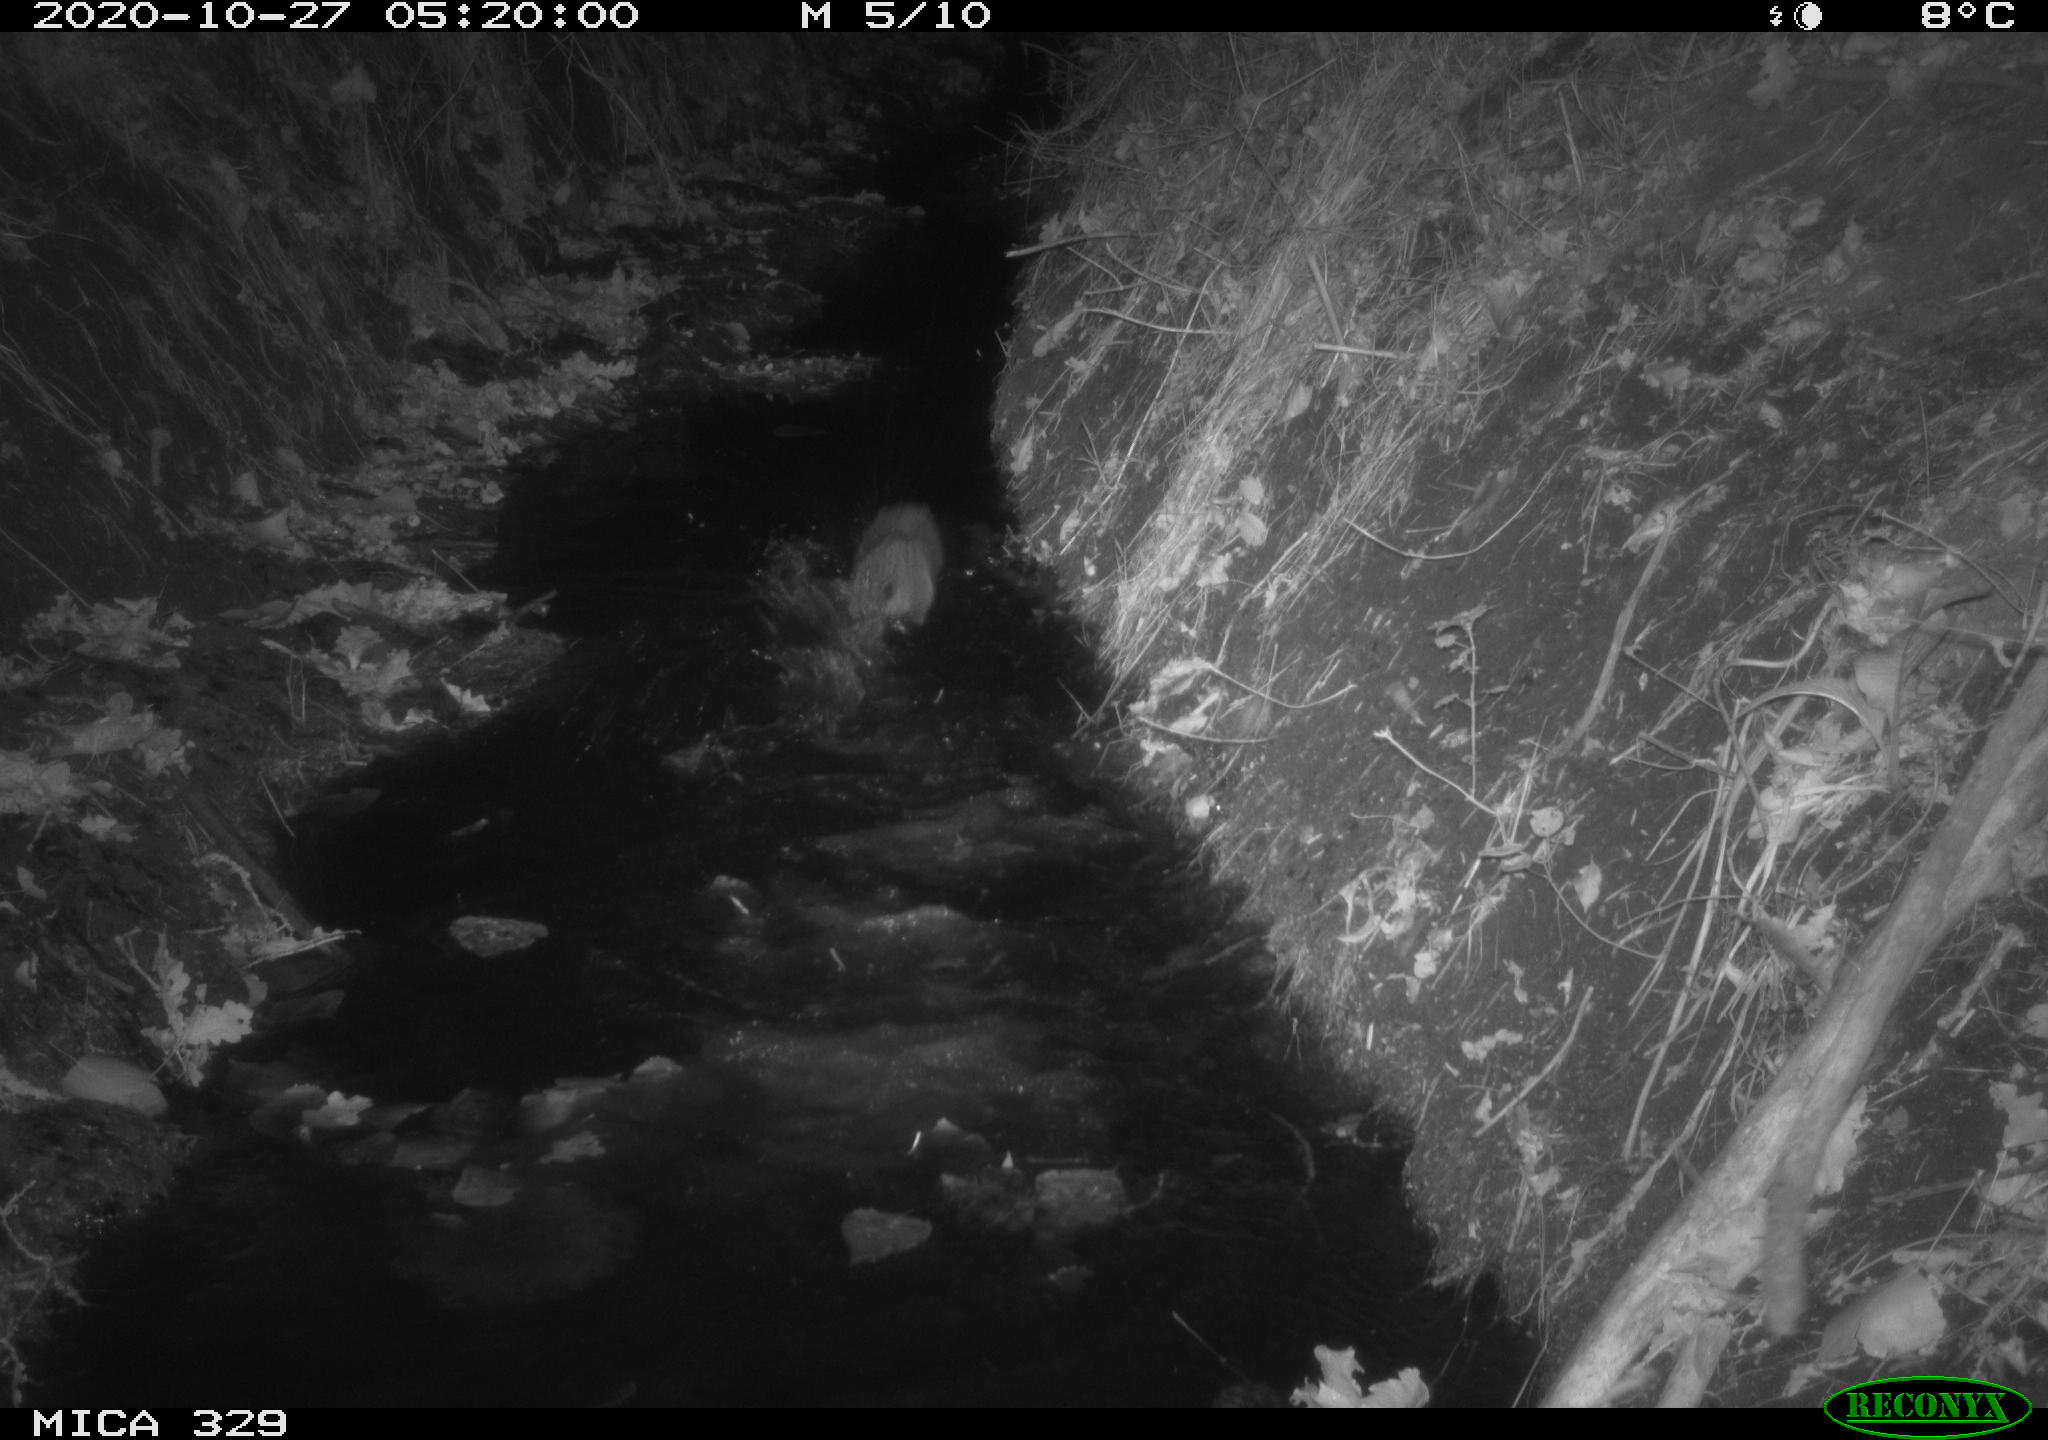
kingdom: Animalia
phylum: Chordata
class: Mammalia
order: Rodentia
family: Muridae
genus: Rattus
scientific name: Rattus norvegicus
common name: Brown rat
